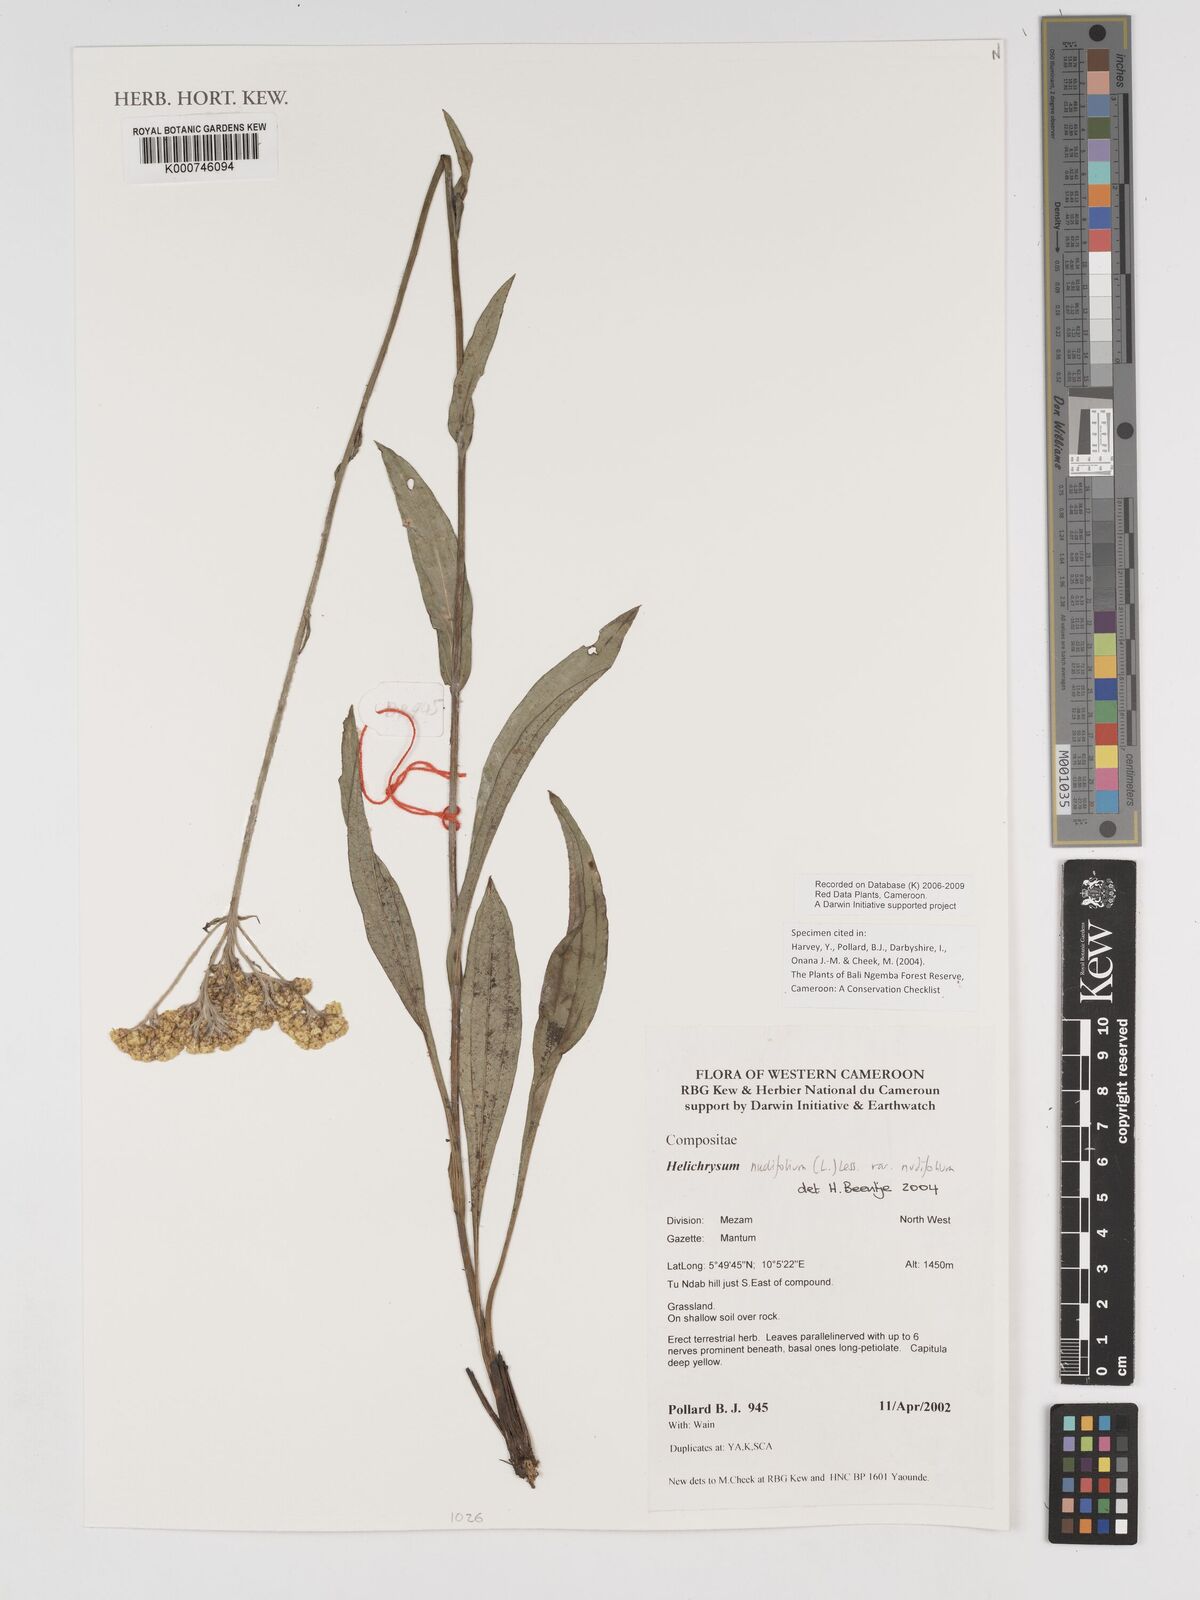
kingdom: Plantae
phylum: Tracheophyta
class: Magnoliopsida
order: Asterales
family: Asteraceae
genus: Helichrysum
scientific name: Helichrysum nudifolium
